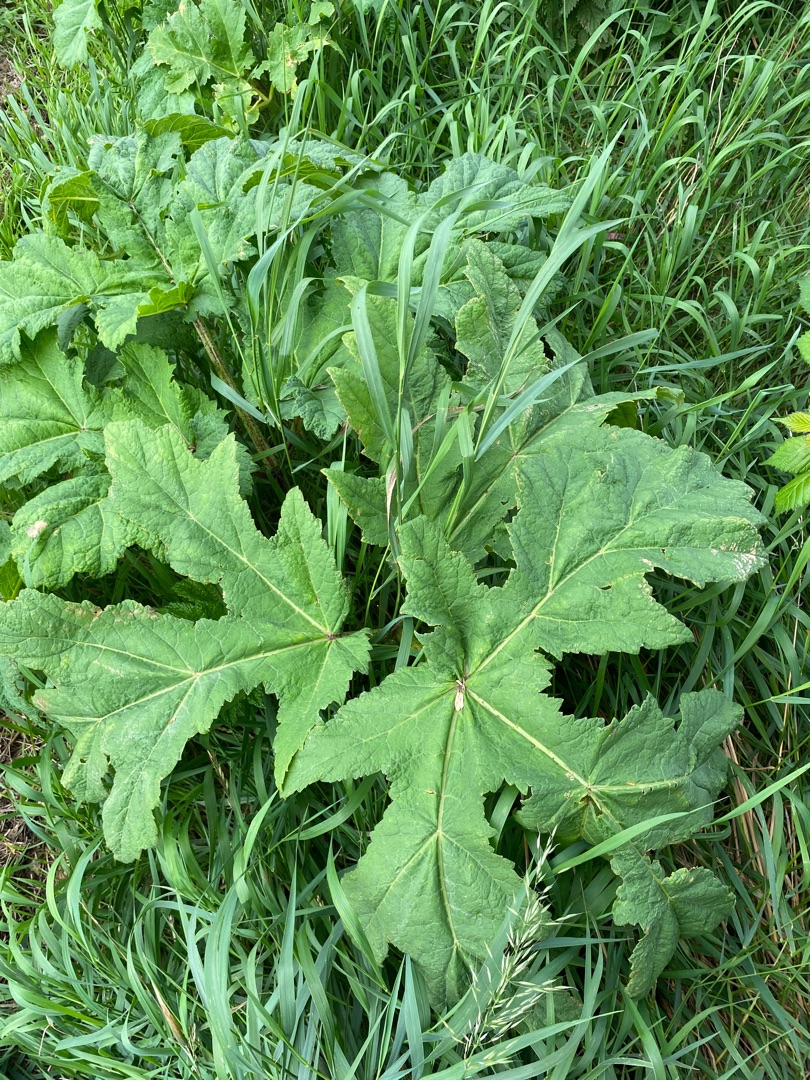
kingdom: Plantae
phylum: Tracheophyta
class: Magnoliopsida
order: Apiales
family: Apiaceae
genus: Heracleum
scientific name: Heracleum mantegazzianum
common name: Kæmpe-bjørneklo
